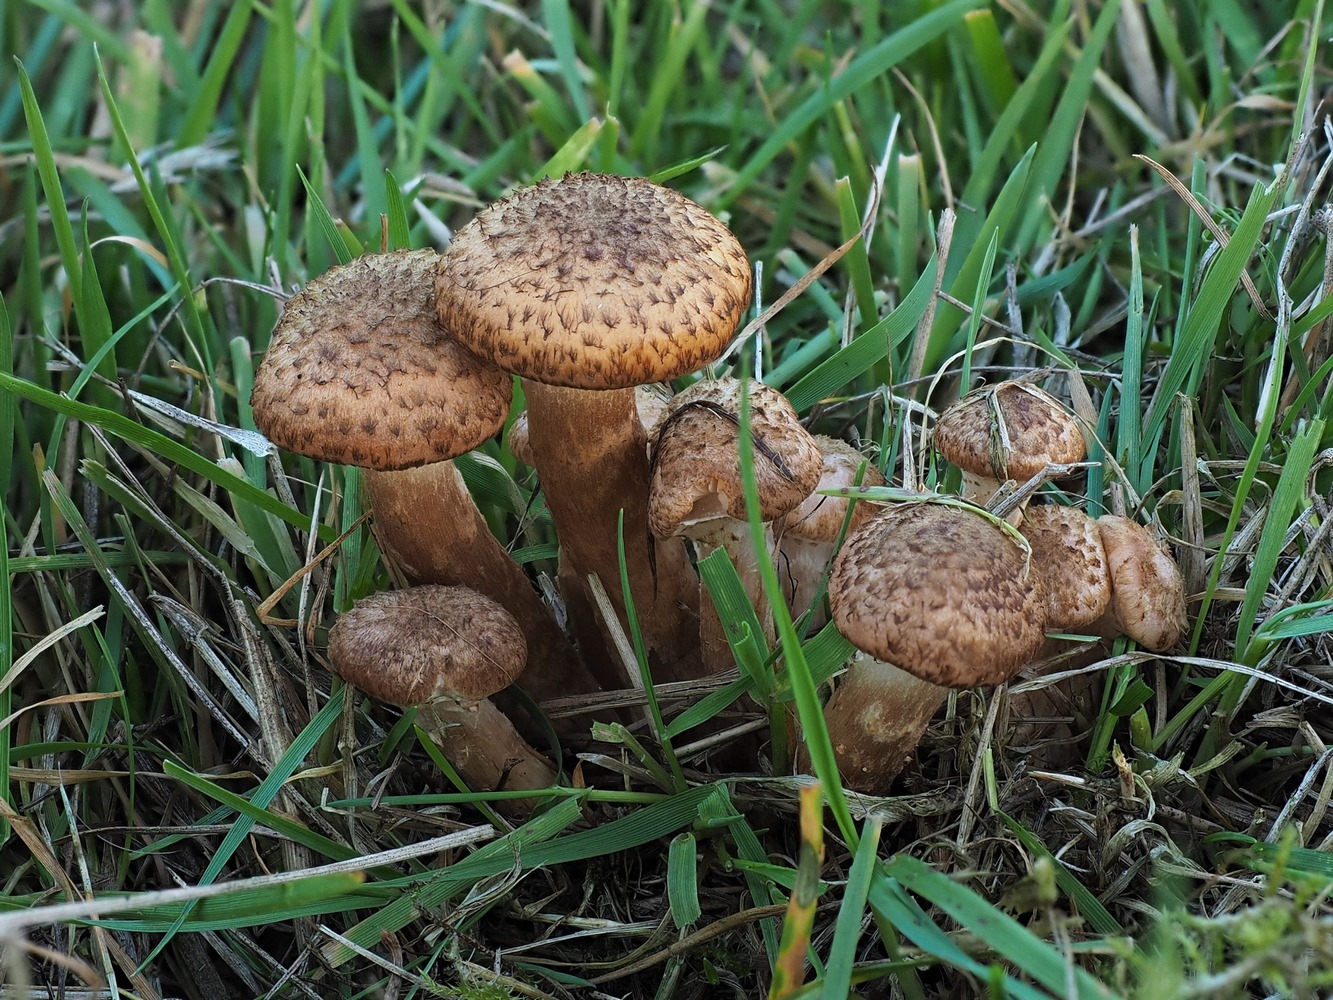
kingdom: Fungi
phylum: Basidiomycota
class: Agaricomycetes
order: Agaricales
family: Physalacriaceae
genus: Armillaria
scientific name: Armillaria ostoyae
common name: mørk honningsvamp
